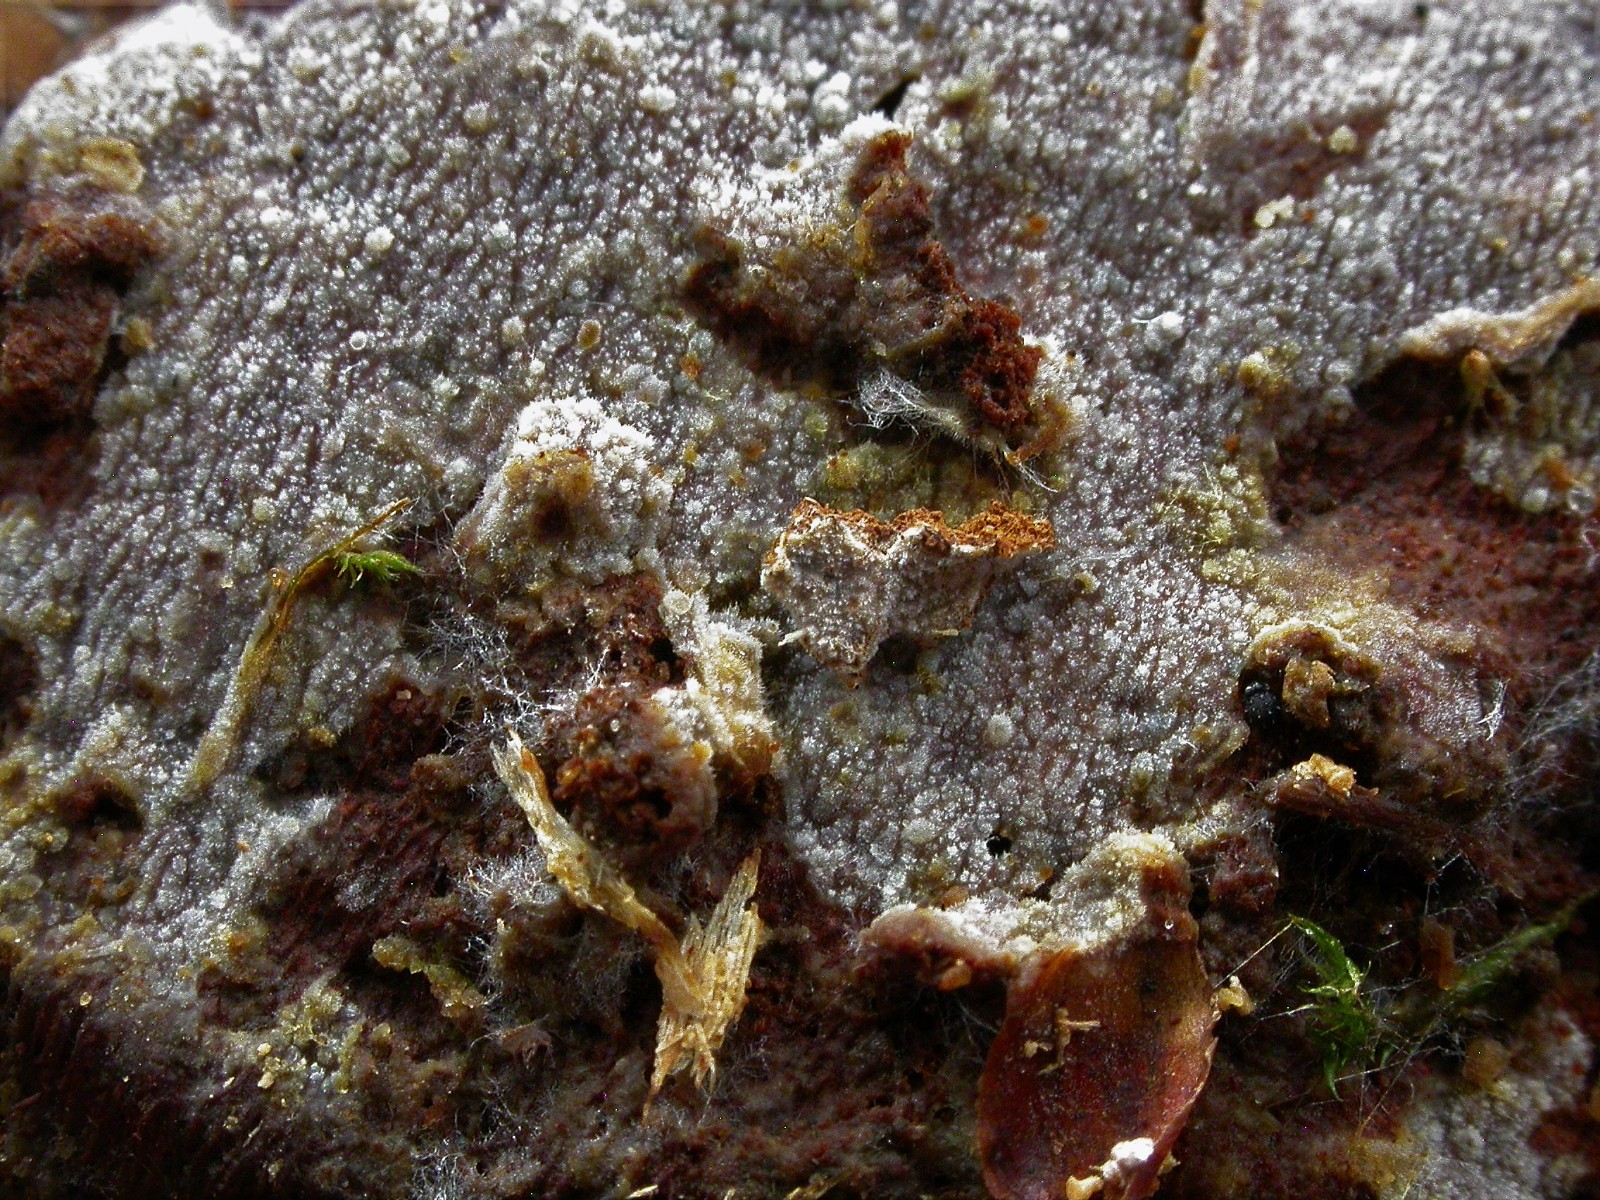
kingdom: Fungi
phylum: Basidiomycota
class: Agaricomycetes
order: Polyporales
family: Meruliaceae
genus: Scopuloides
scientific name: Scopuloides rimosa
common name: dughinde
